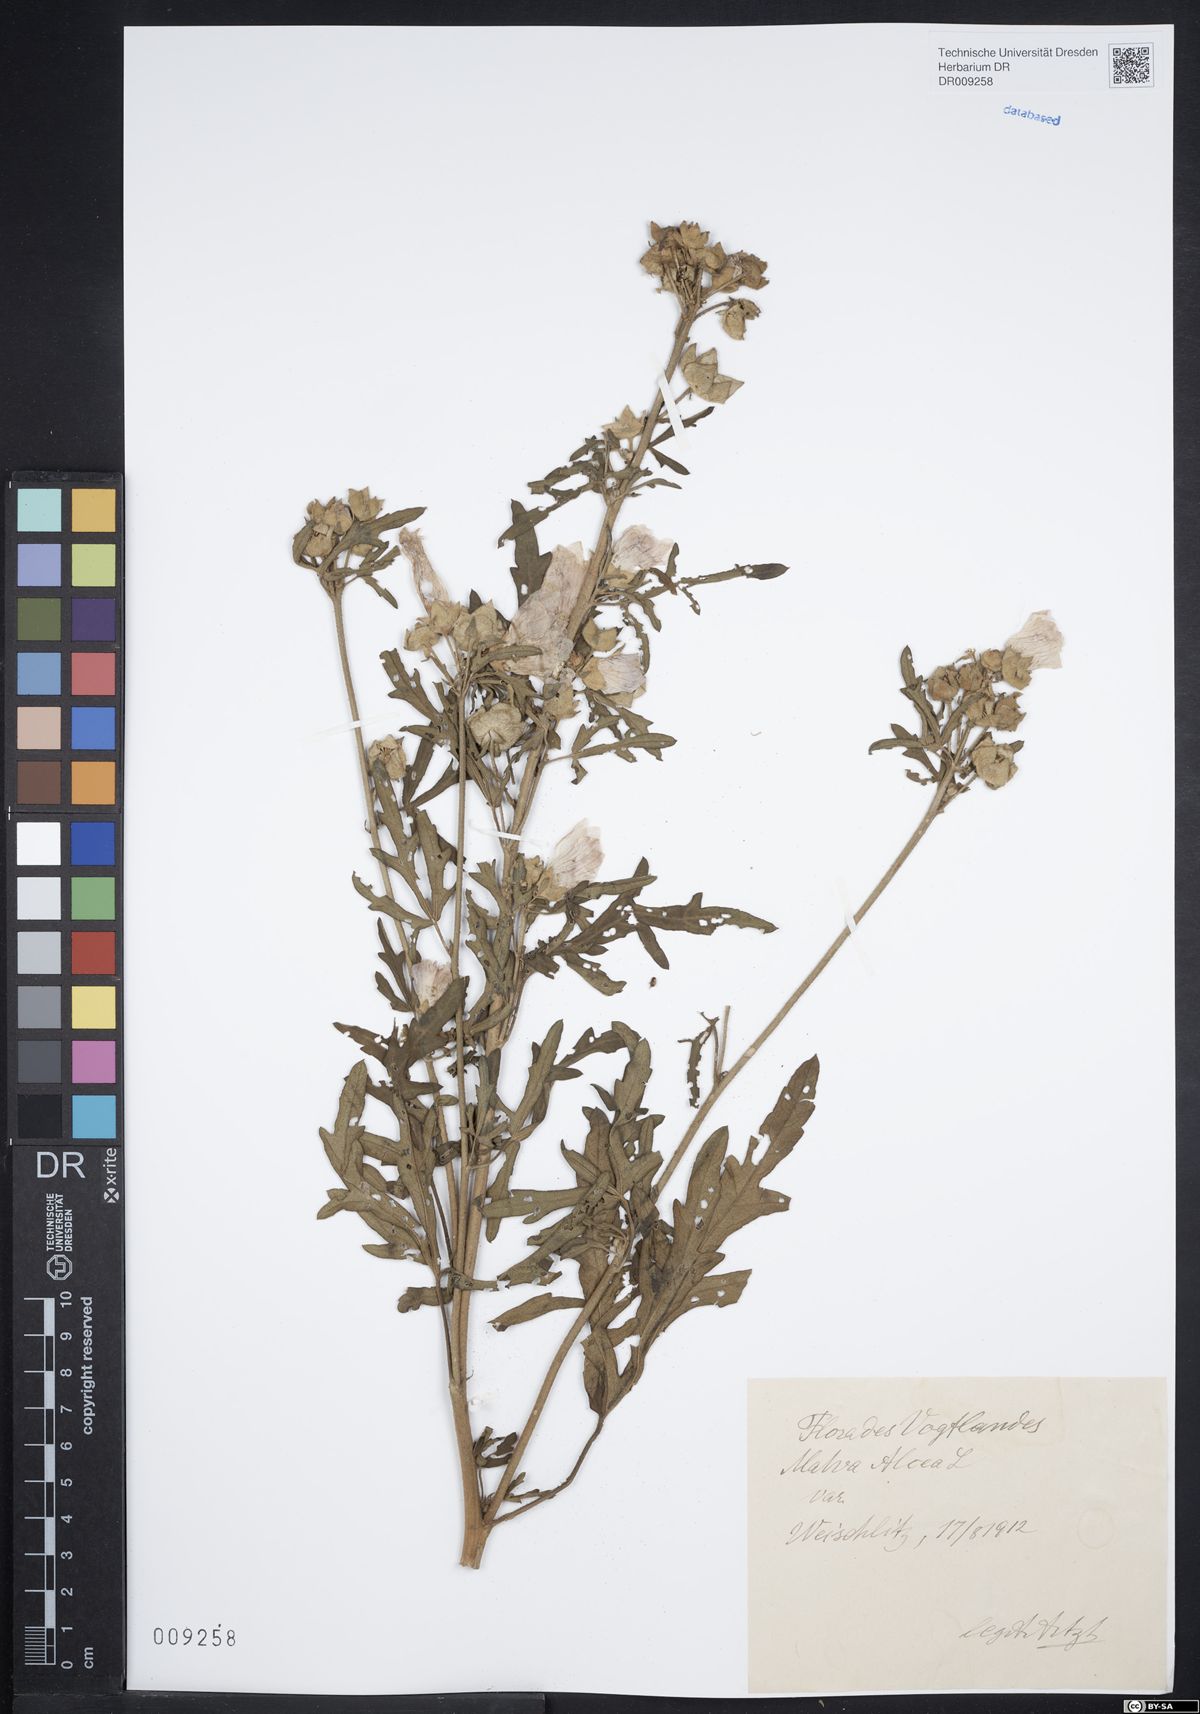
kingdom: Plantae
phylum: Tracheophyta
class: Magnoliopsida
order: Malvales
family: Malvaceae
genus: Malva
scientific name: Malva alcea
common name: Greater musk-mallow
